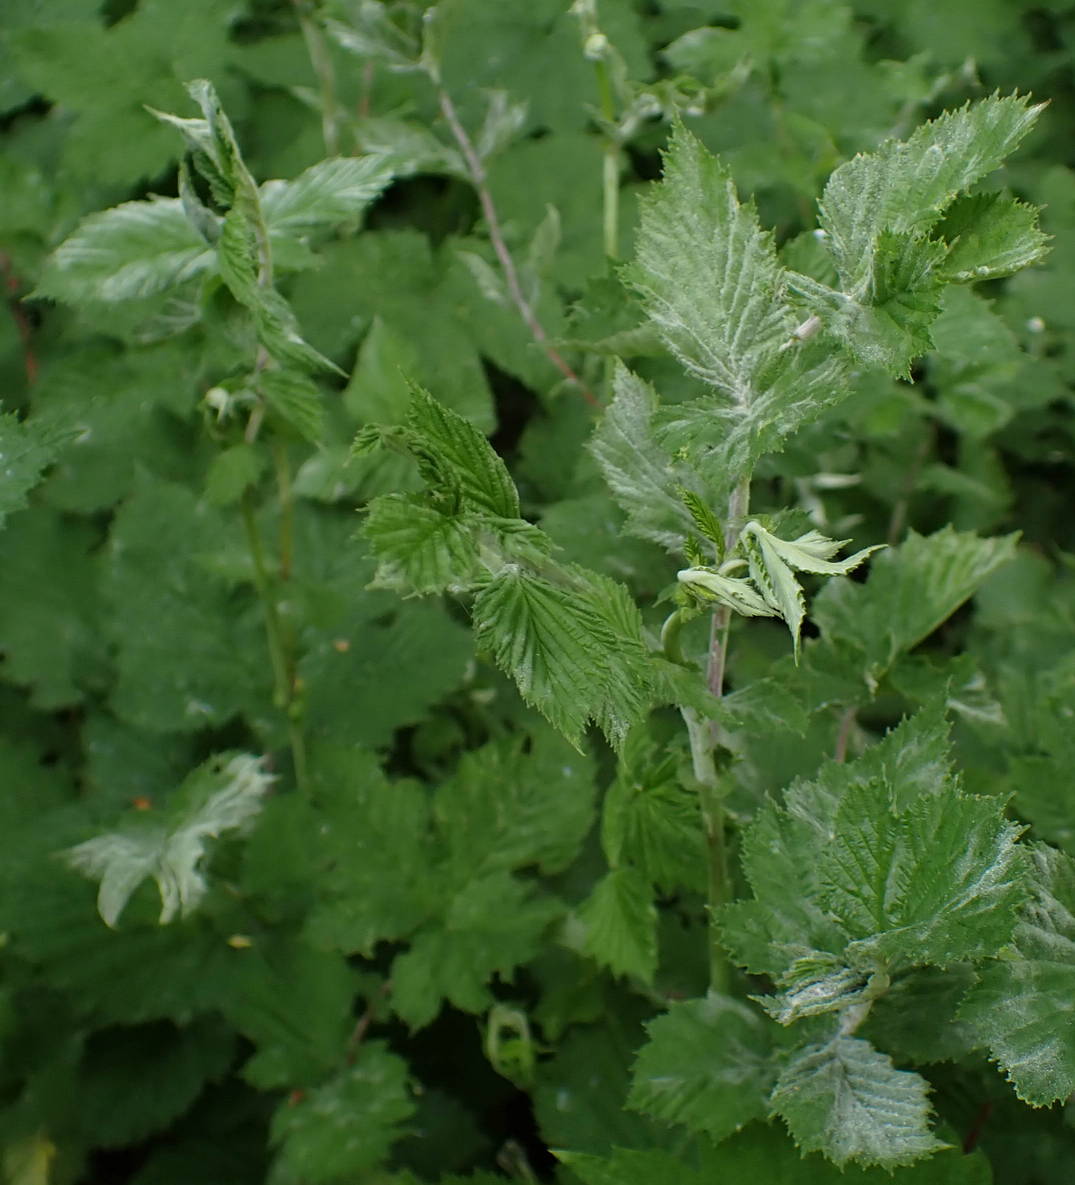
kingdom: Fungi
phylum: Ascomycota
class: Leotiomycetes
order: Helotiales
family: Erysiphaceae
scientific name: Erysiphaceae
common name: meldugfamilien
